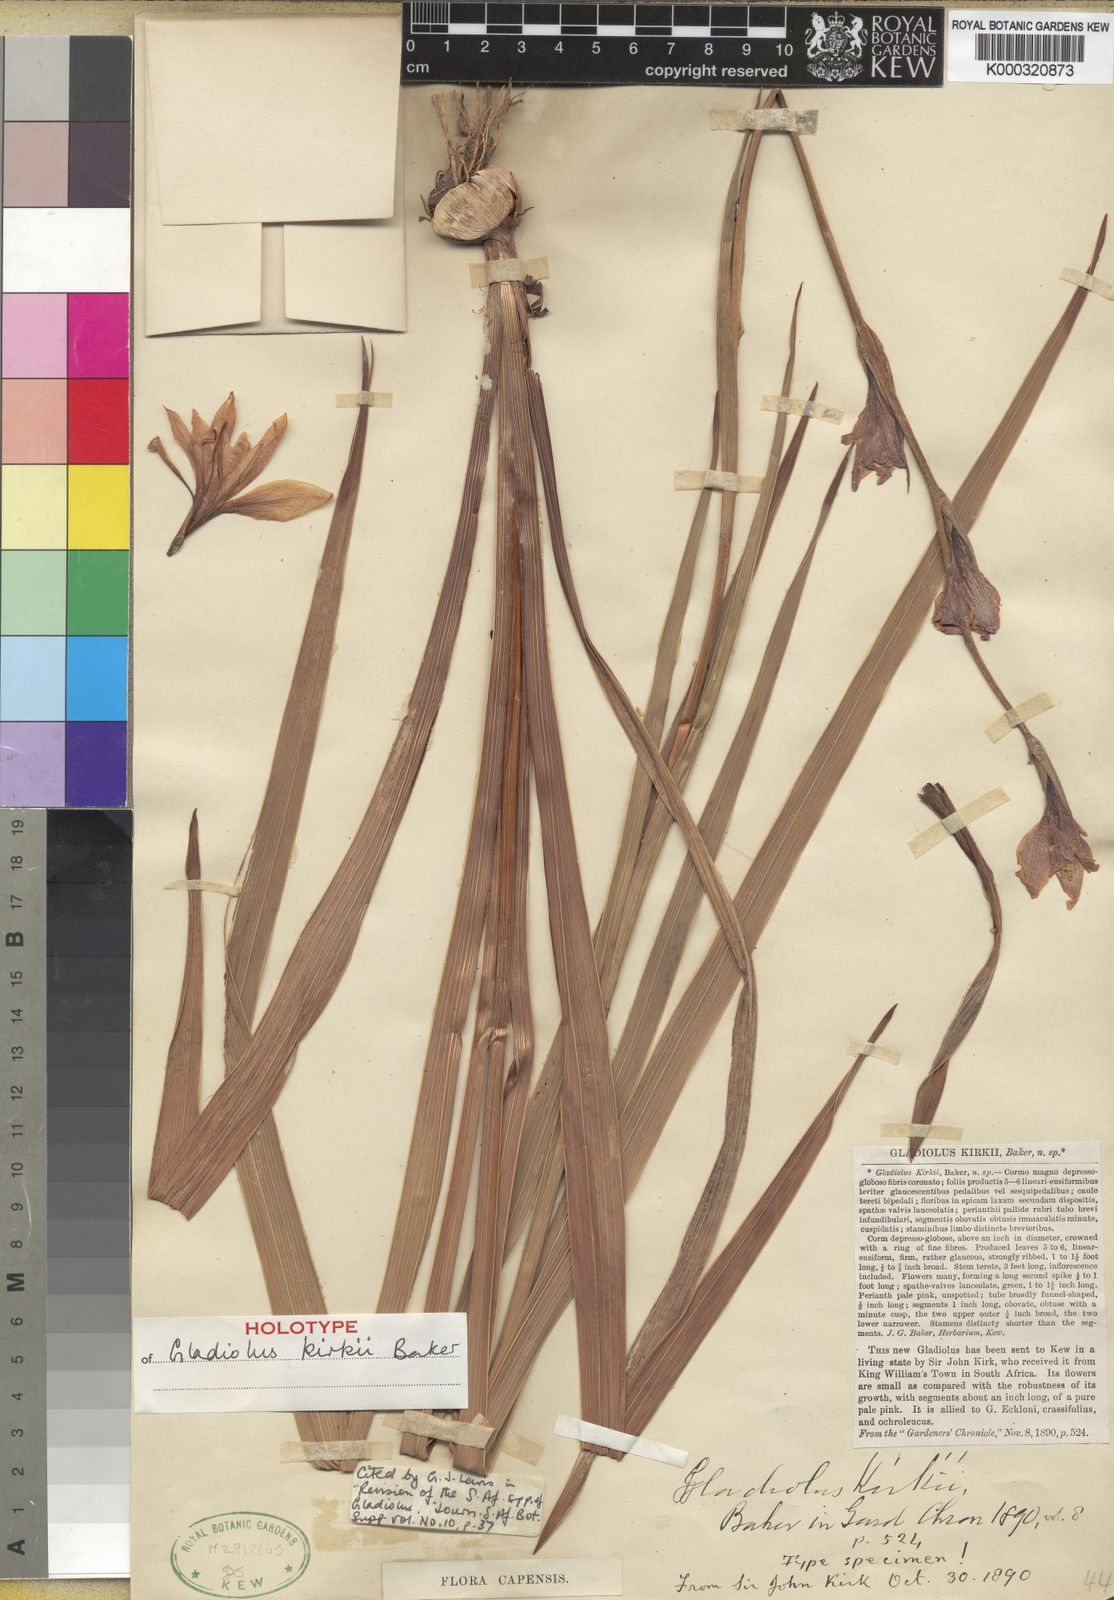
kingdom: Plantae
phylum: Tracheophyta
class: Liliopsida
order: Asparagales
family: Iridaceae
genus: Gladiolus
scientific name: Gladiolus ochroleucus
